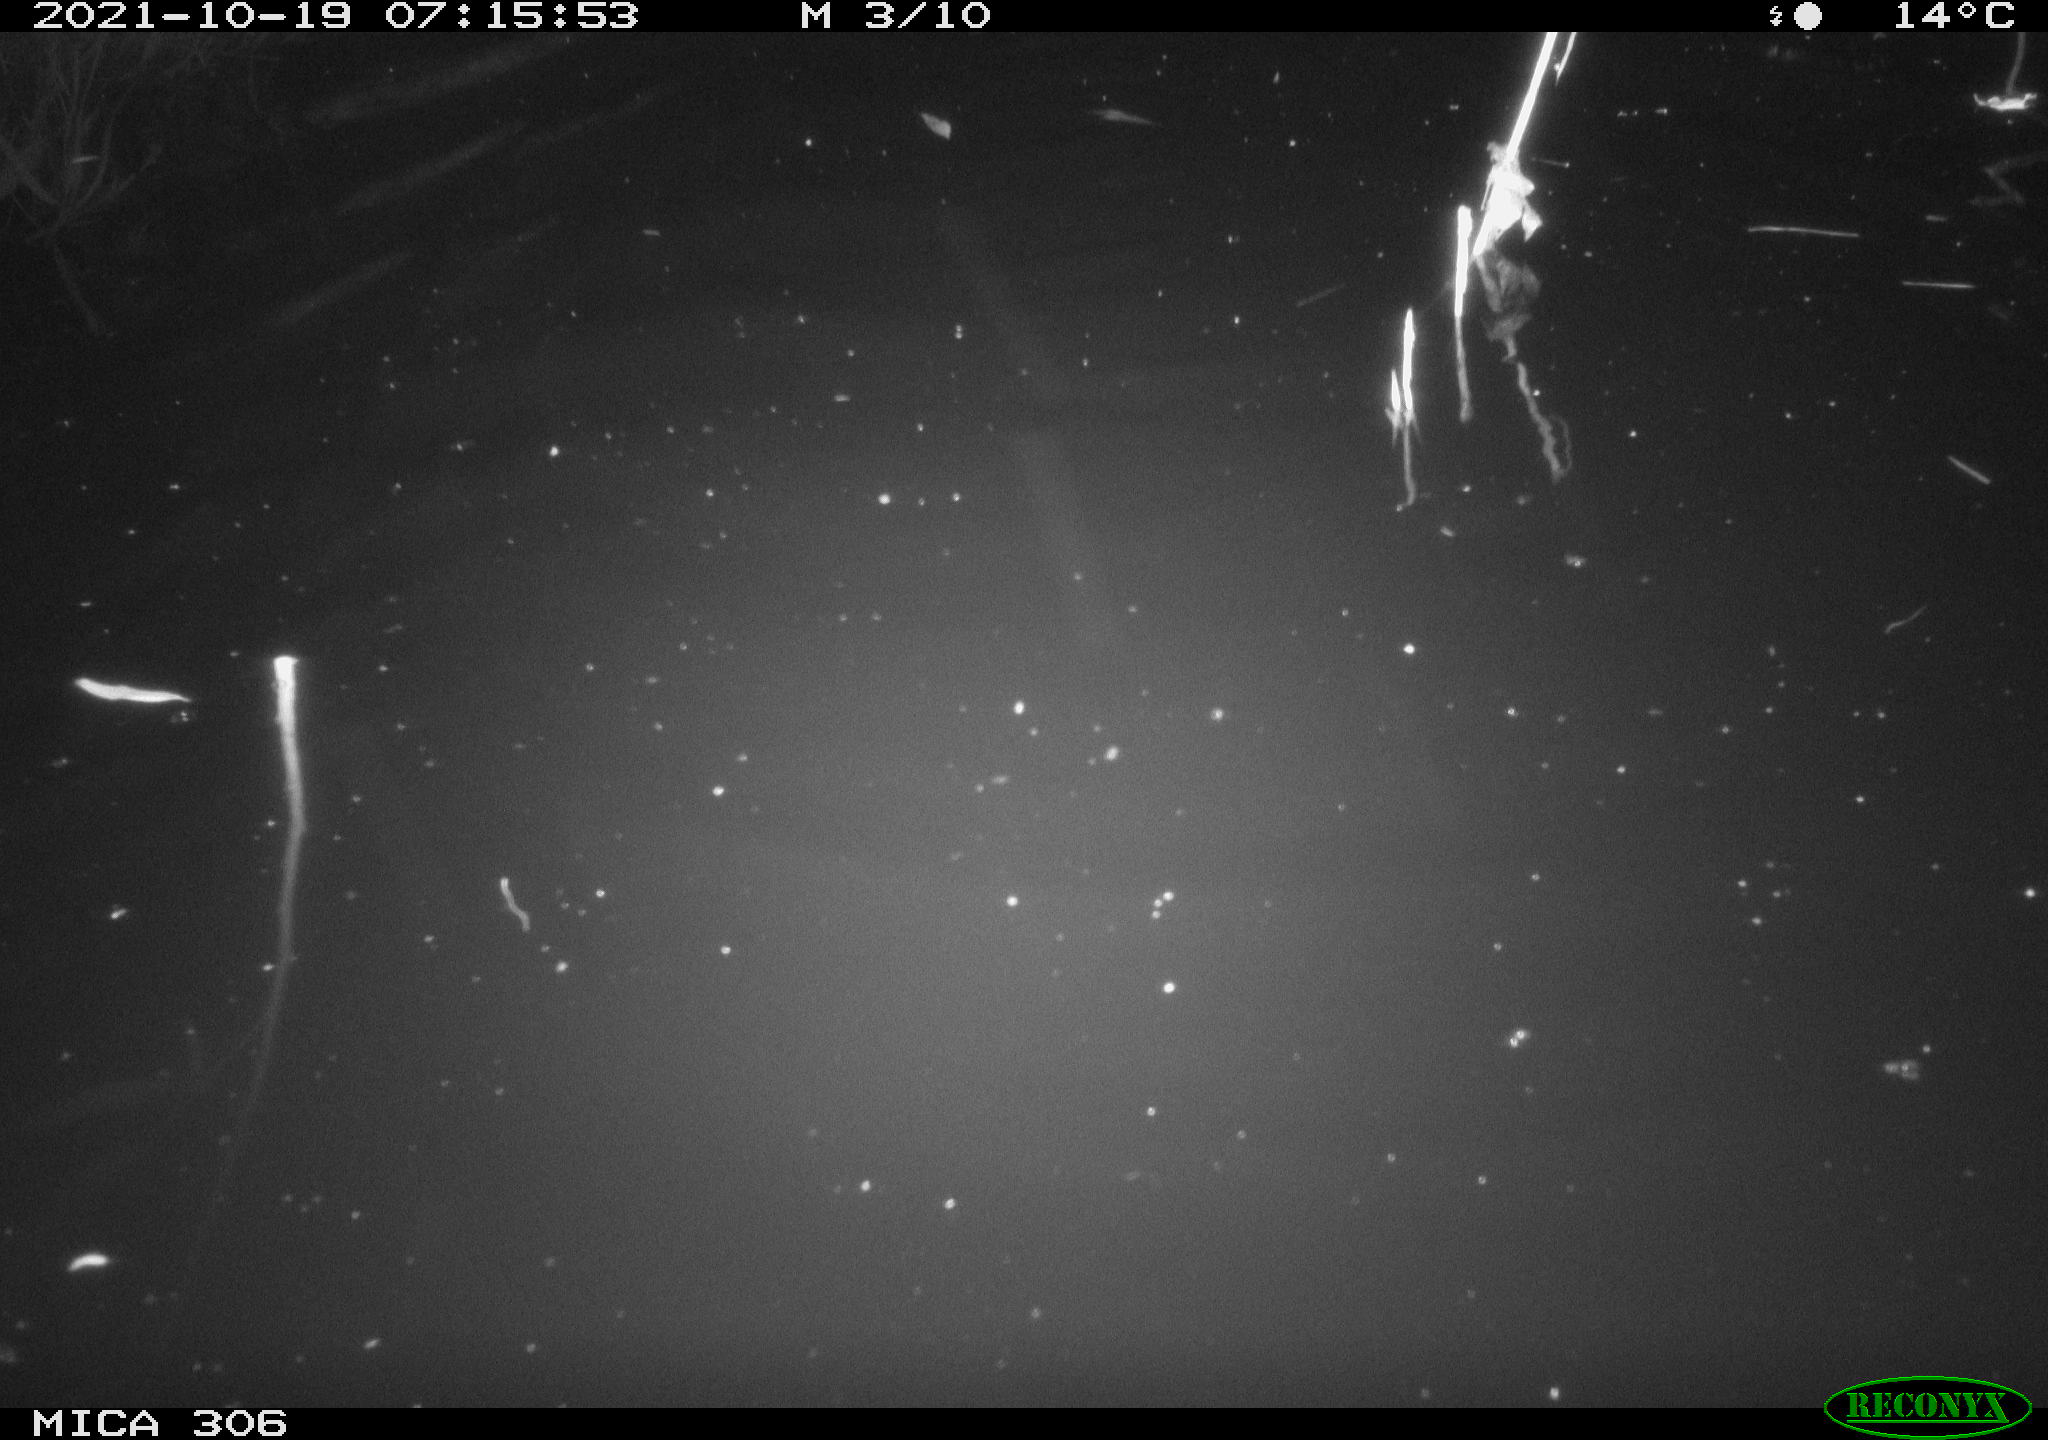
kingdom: Animalia
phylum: Chordata
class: Mammalia
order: Rodentia
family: Cricetidae
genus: Ondatra
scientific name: Ondatra zibethicus
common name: Muskrat
